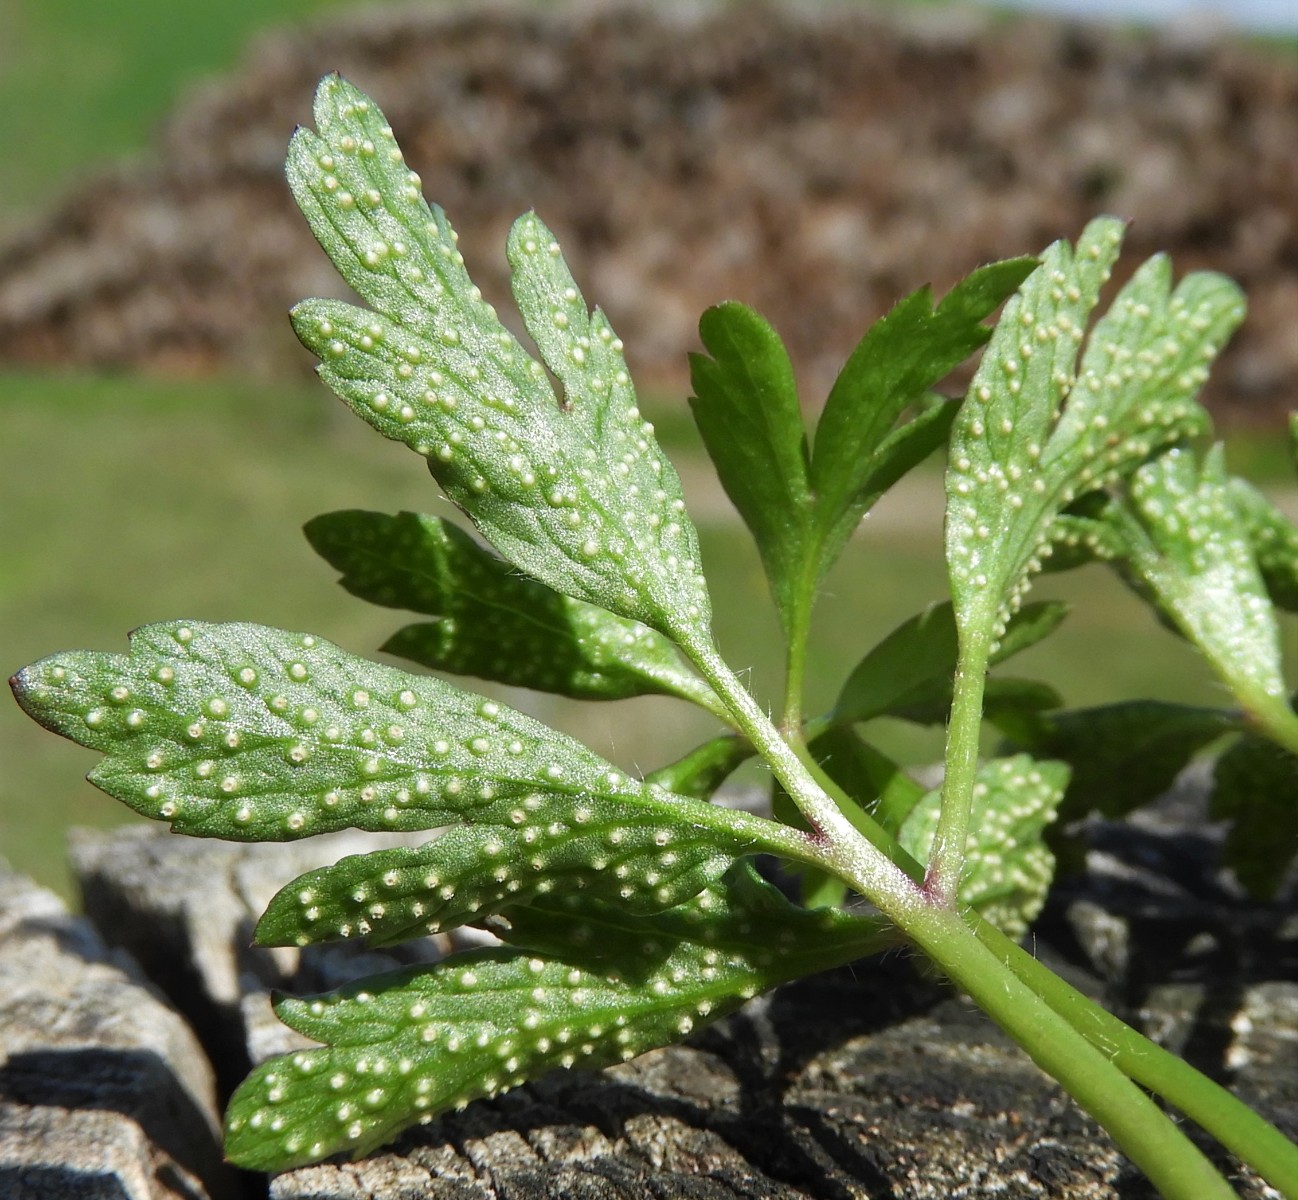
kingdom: Fungi
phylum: Basidiomycota
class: Pucciniomycetes
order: Pucciniales
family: Ochropsoraceae
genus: Ochropsora
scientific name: Ochropsora ariae
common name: anemone-okkerpletrust
